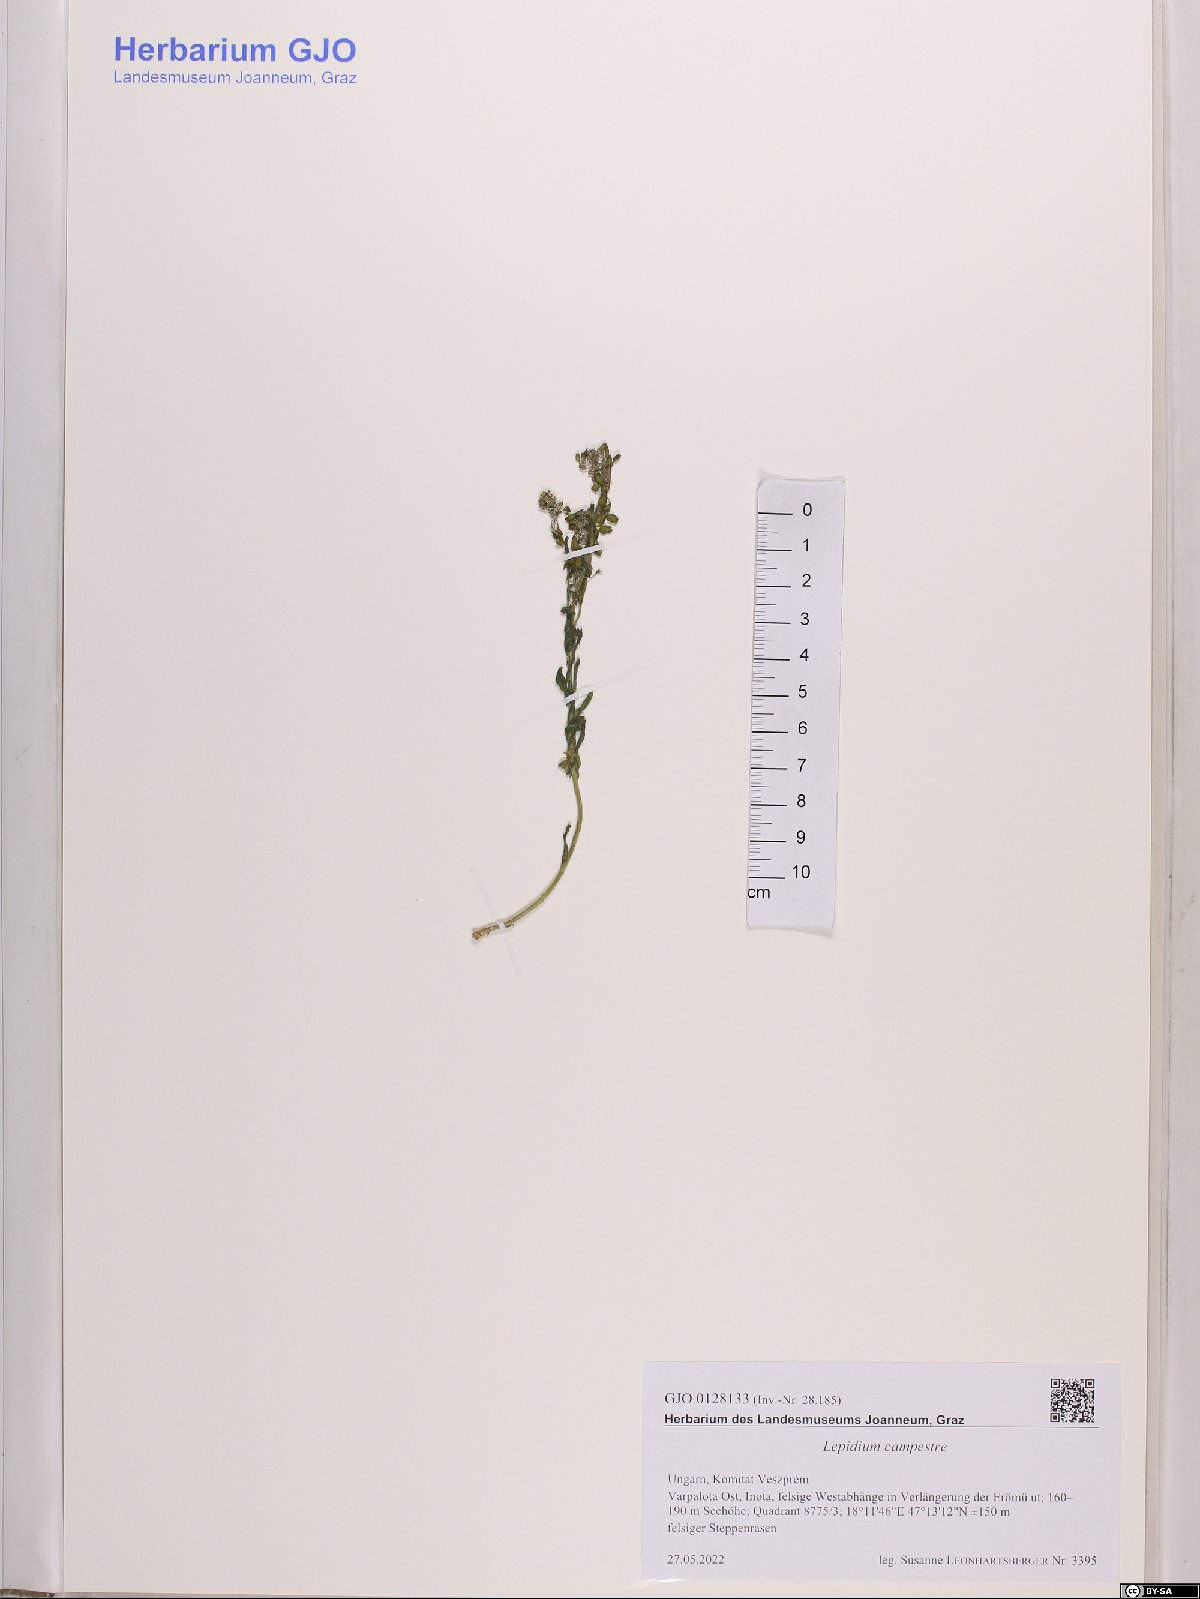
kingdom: Plantae
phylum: Tracheophyta
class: Magnoliopsida
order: Brassicales
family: Brassicaceae
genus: Lepidium
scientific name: Lepidium campestre
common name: Field pepperwort
